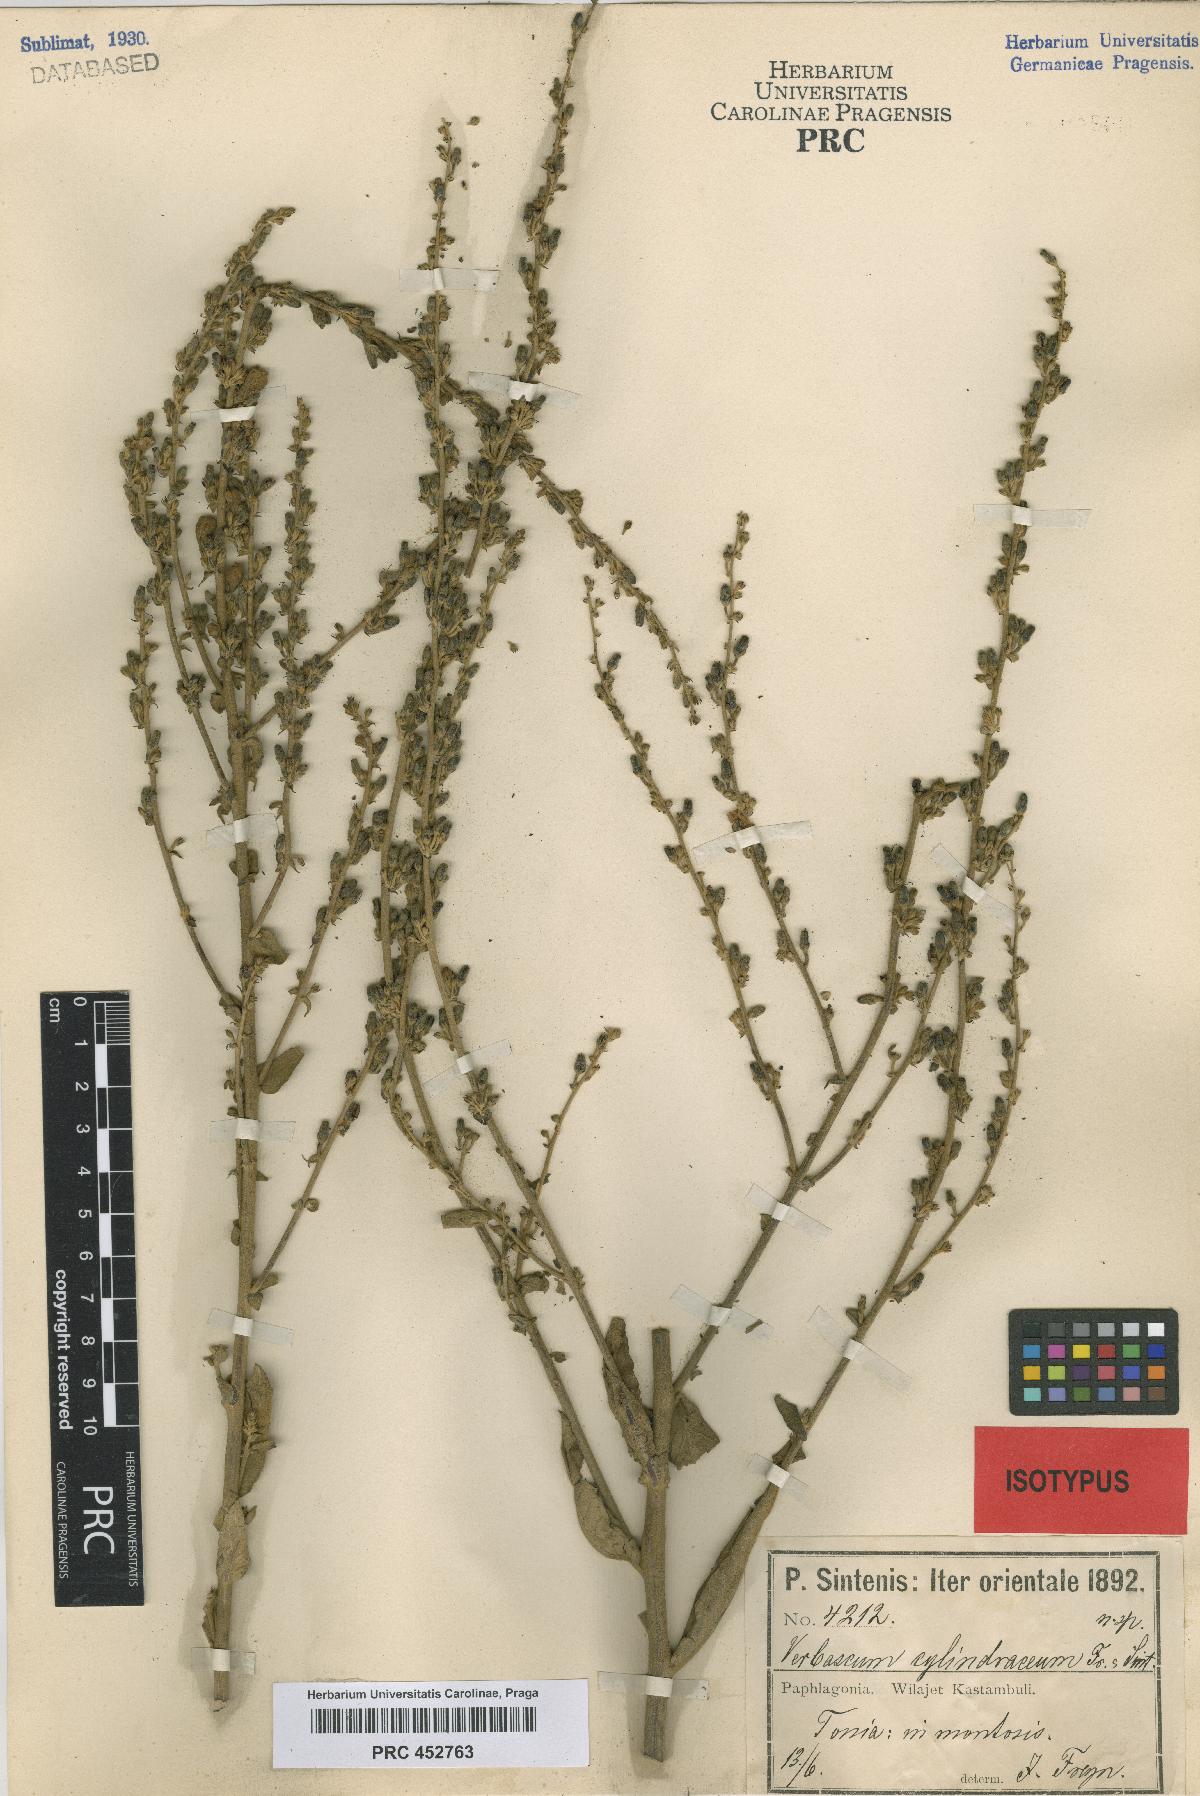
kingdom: Plantae
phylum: Tracheophyta
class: Magnoliopsida
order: Lamiales
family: Scrophulariaceae
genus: Verbascum
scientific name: Verbascum cheiranthifollum
